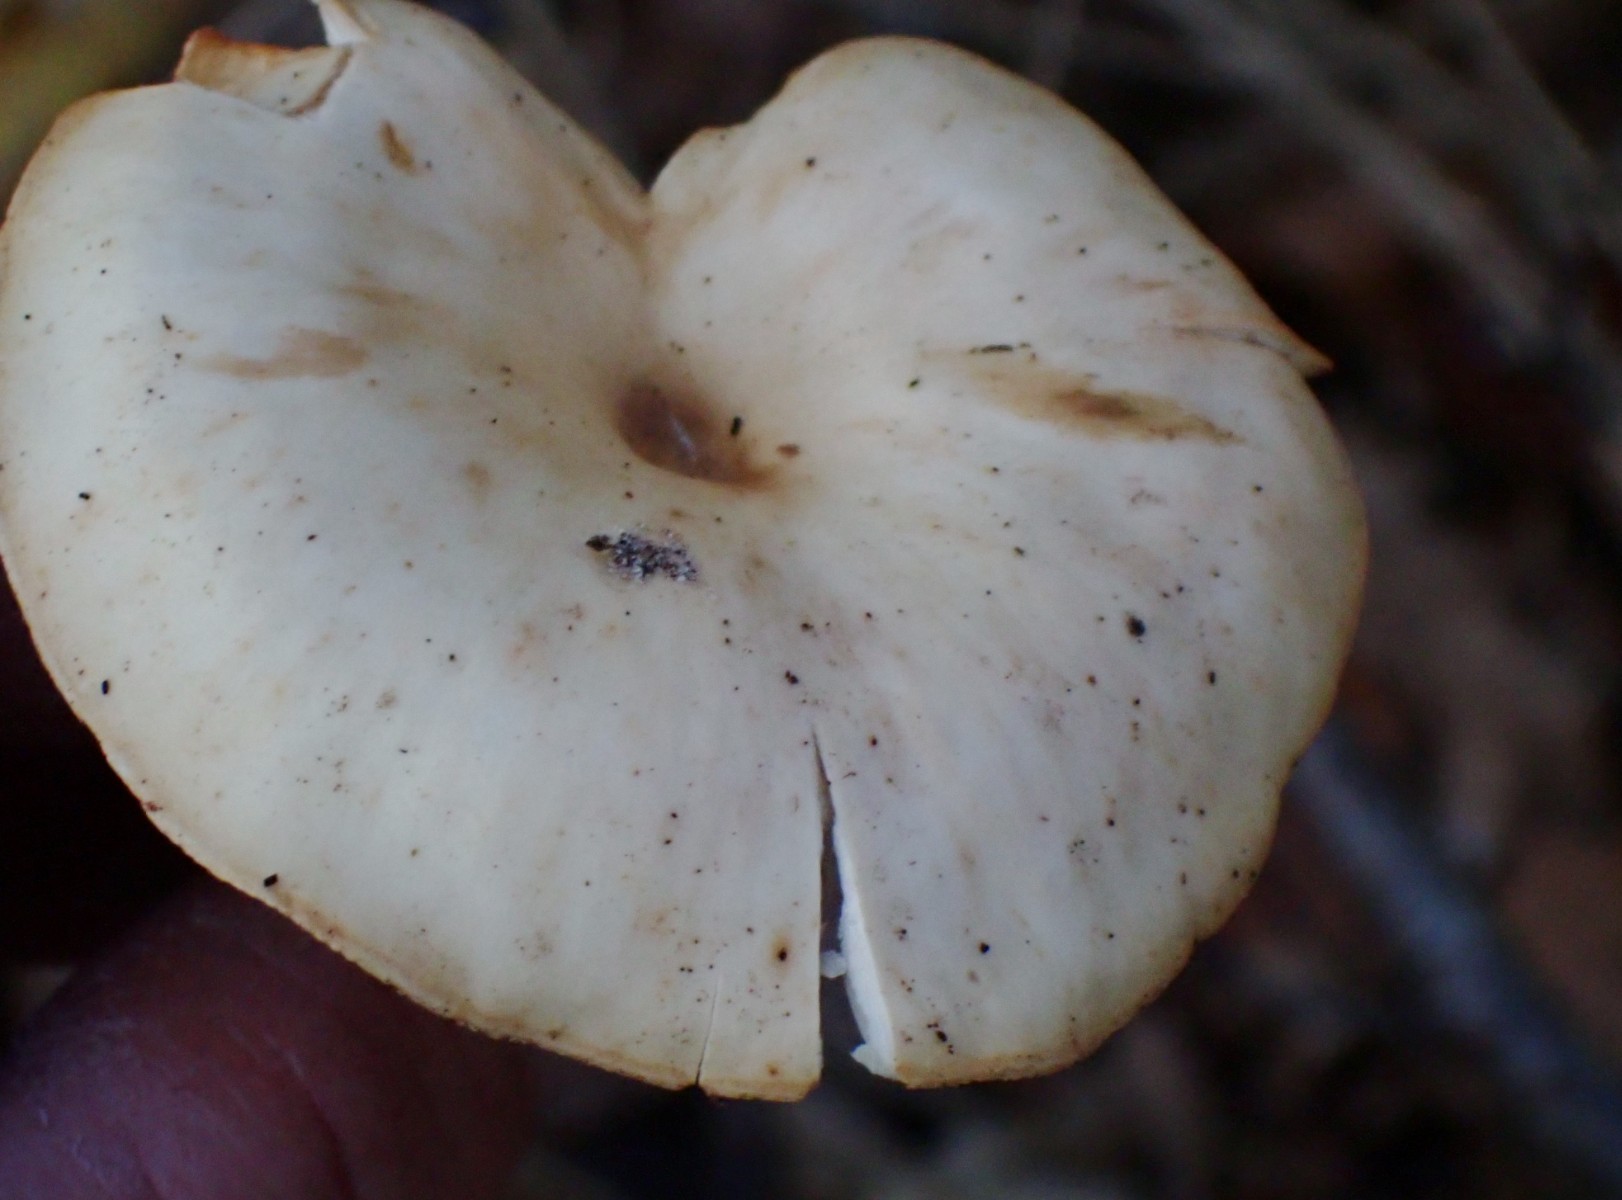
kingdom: Fungi
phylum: Basidiomycota
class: Agaricomycetes
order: Agaricales
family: Tricholomataceae
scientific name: Tricholomataceae
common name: ridderhatfamilien
